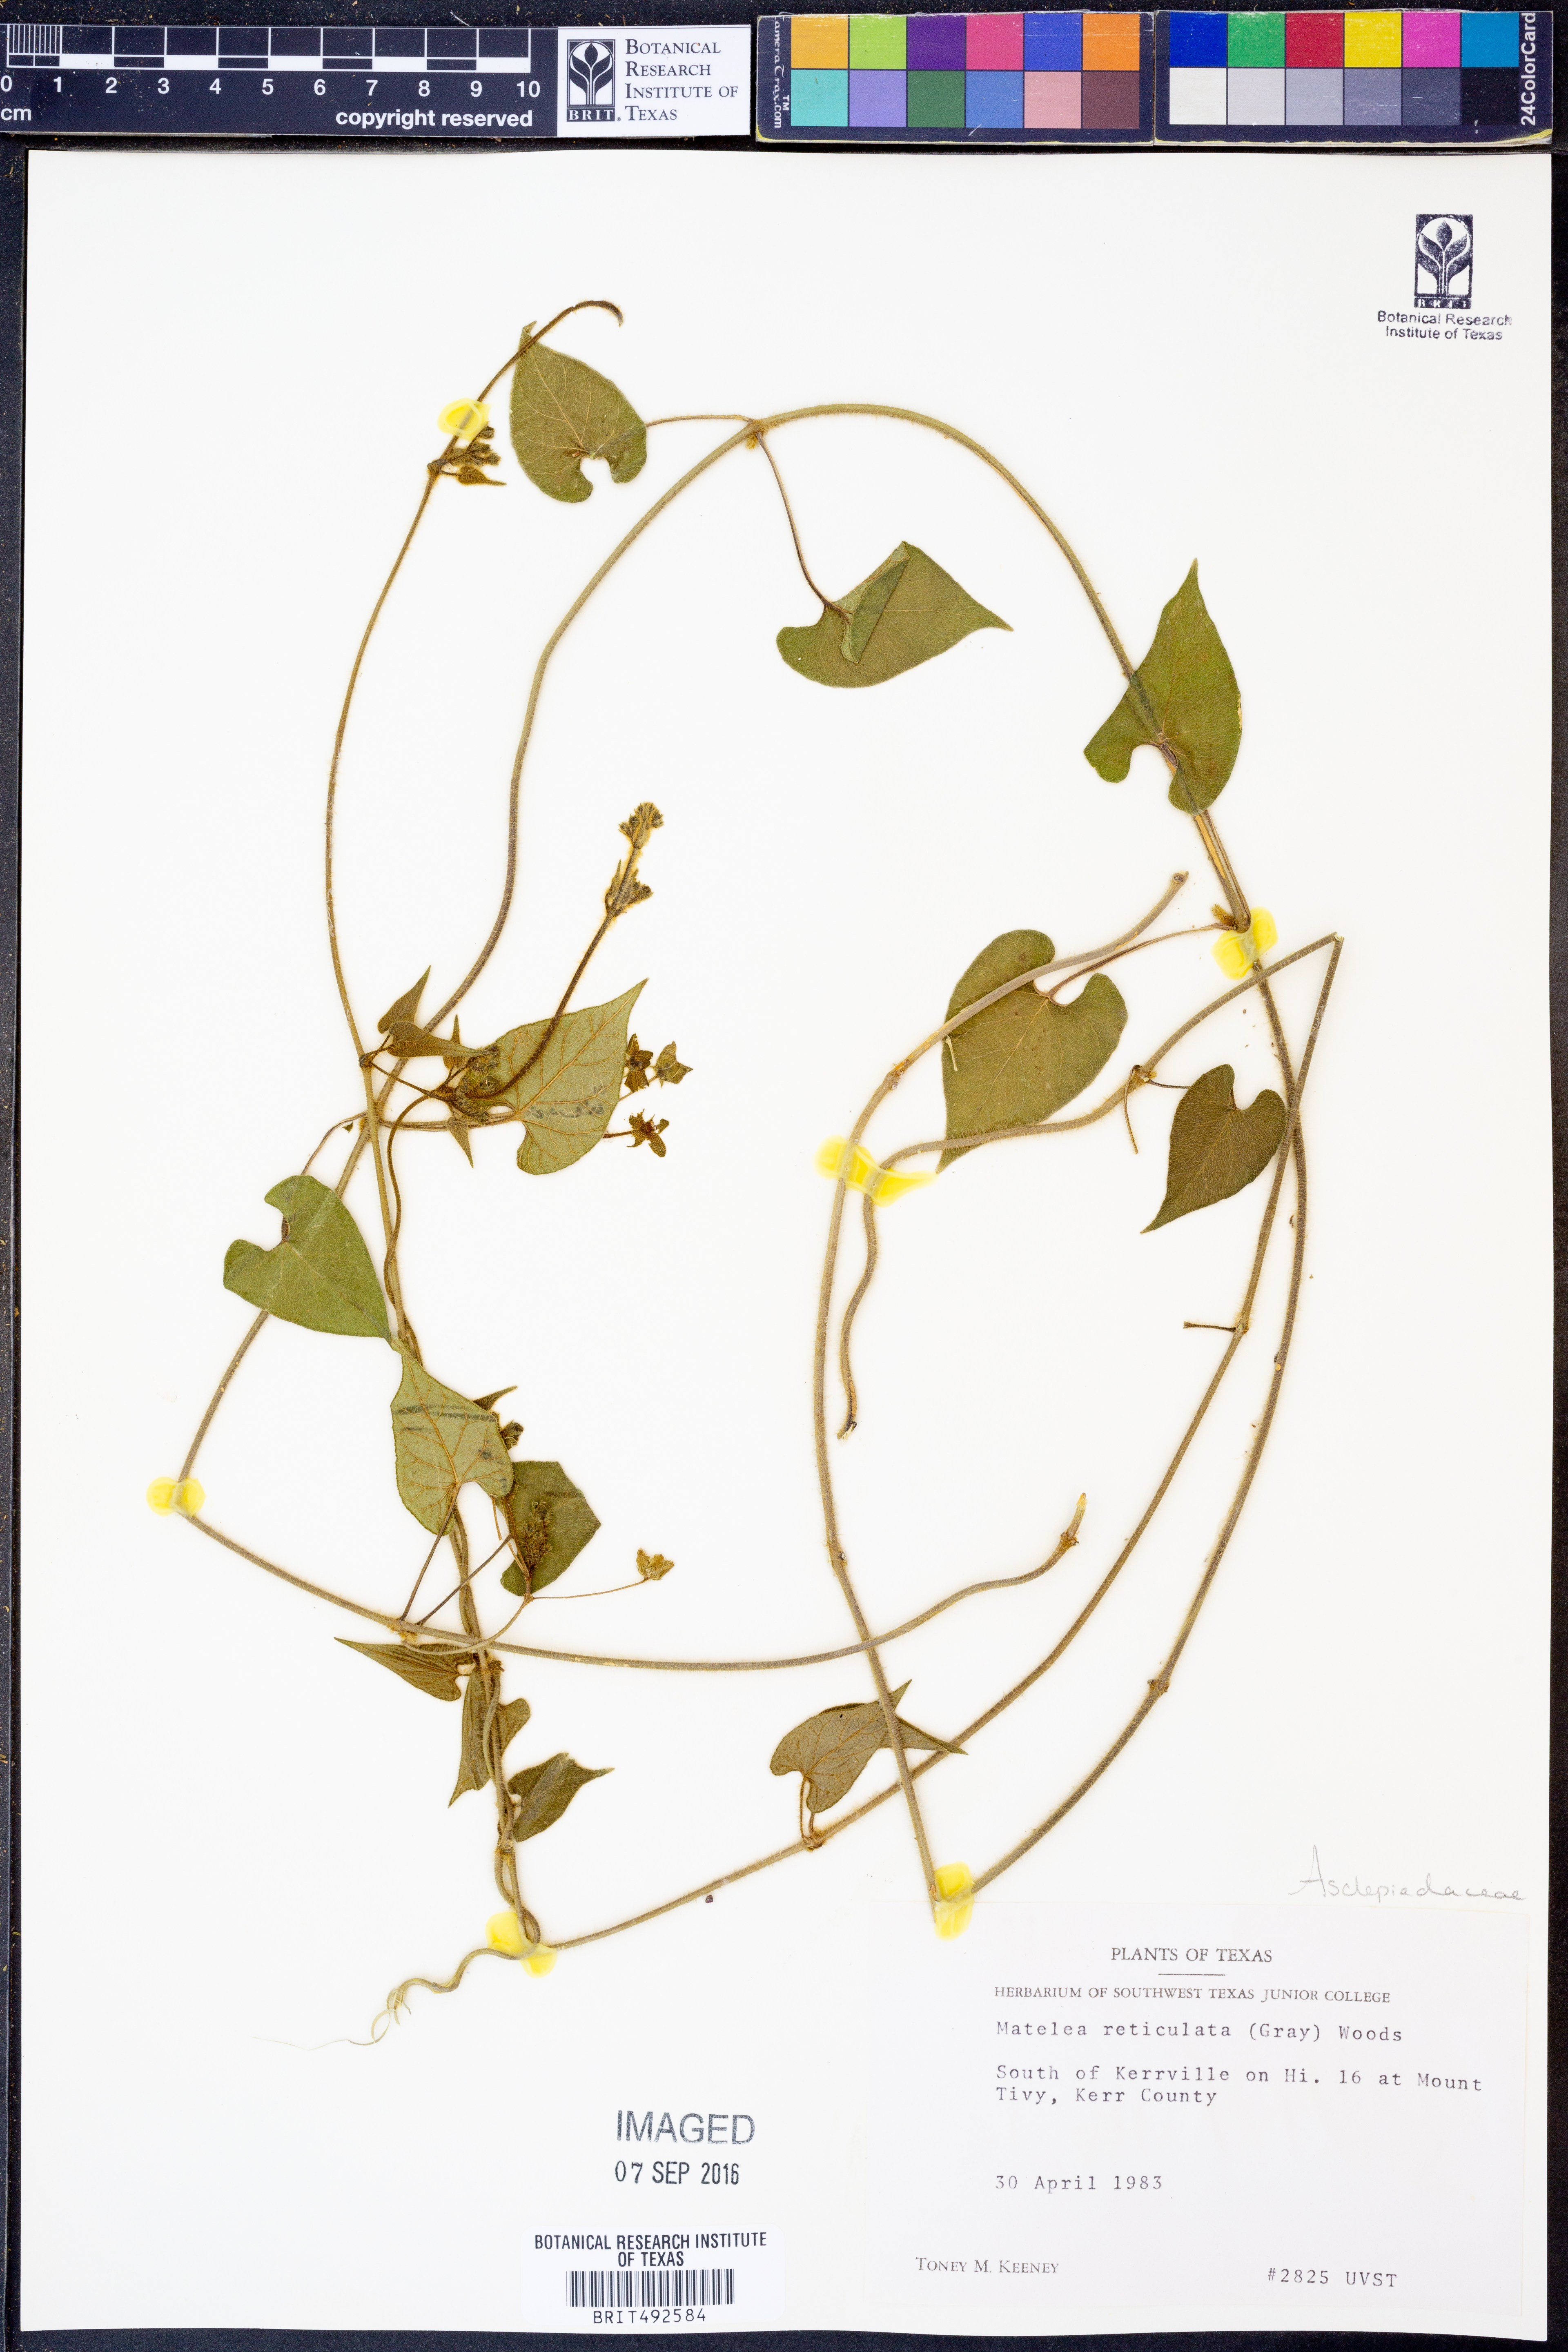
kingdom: Plantae
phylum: Tracheophyta
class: Magnoliopsida
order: Gentianales
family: Apocynaceae
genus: Dictyanthus
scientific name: Dictyanthus reticulatus
